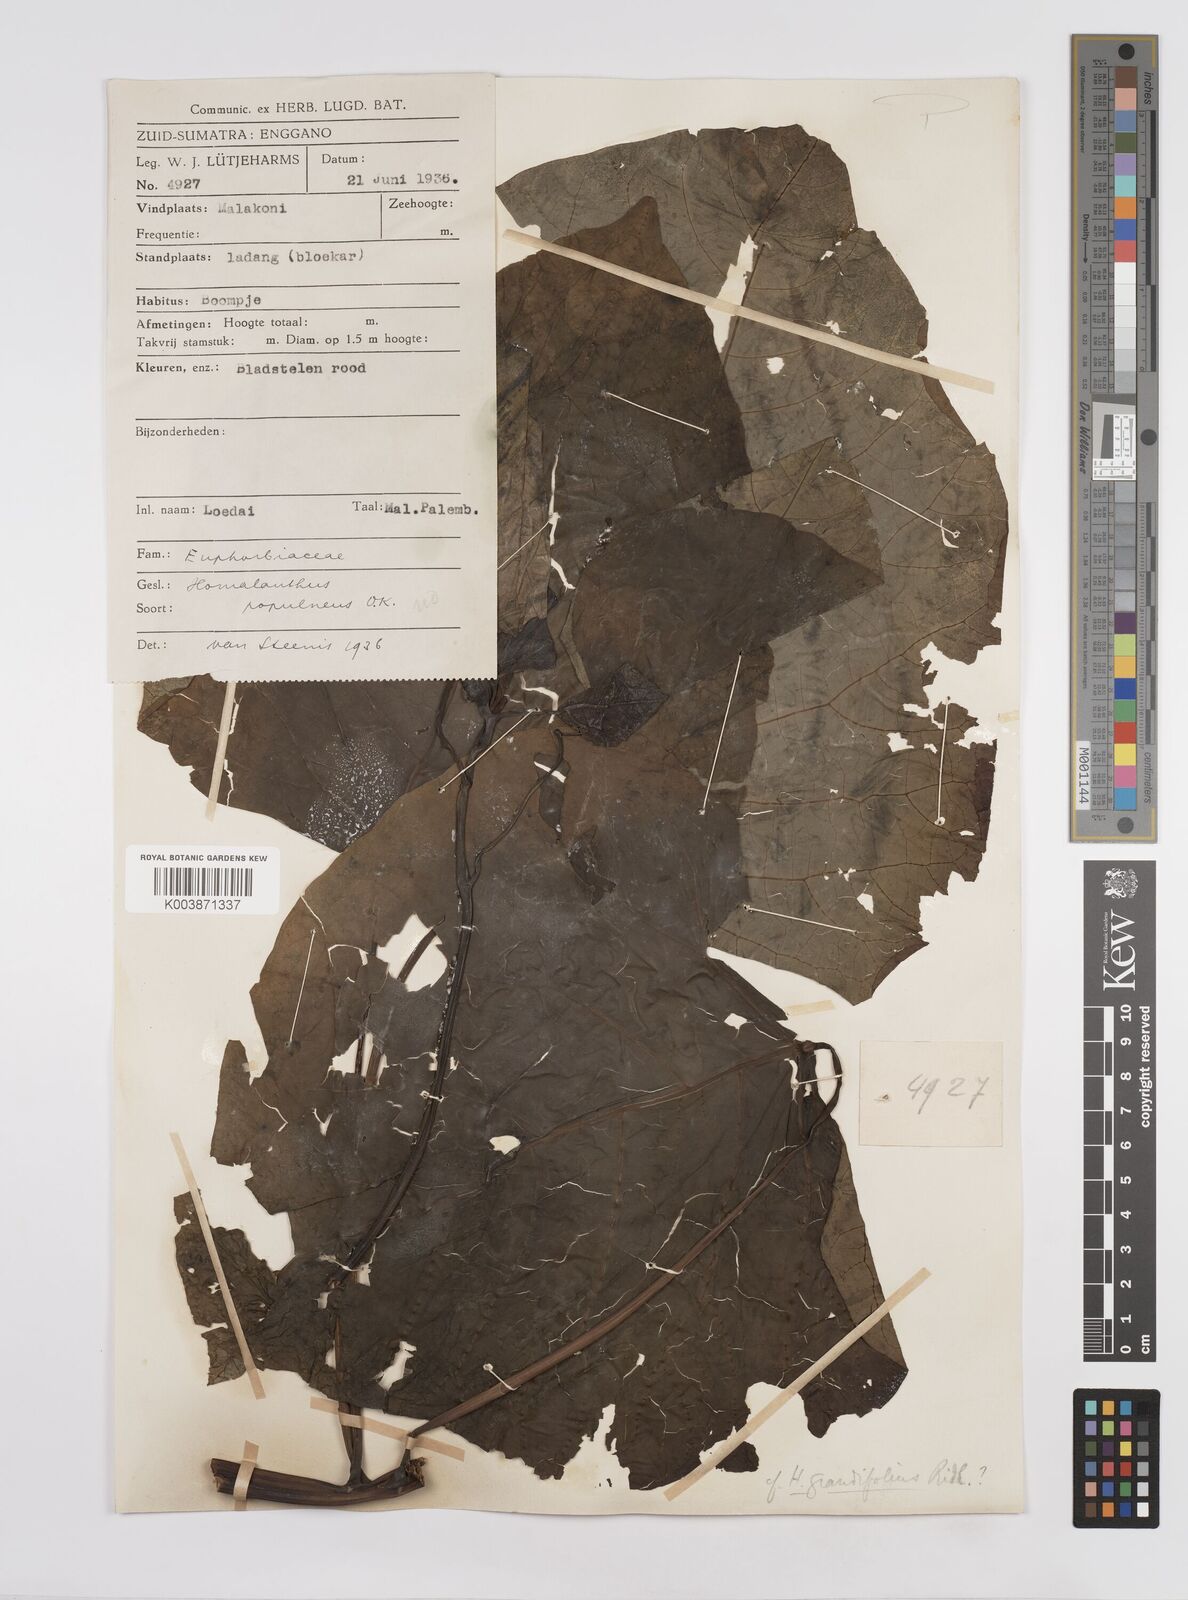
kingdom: Plantae
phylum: Tracheophyta
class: Magnoliopsida
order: Malpighiales
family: Euphorbiaceae
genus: Homalanthus
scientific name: Homalanthus populneus
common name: Spurge
